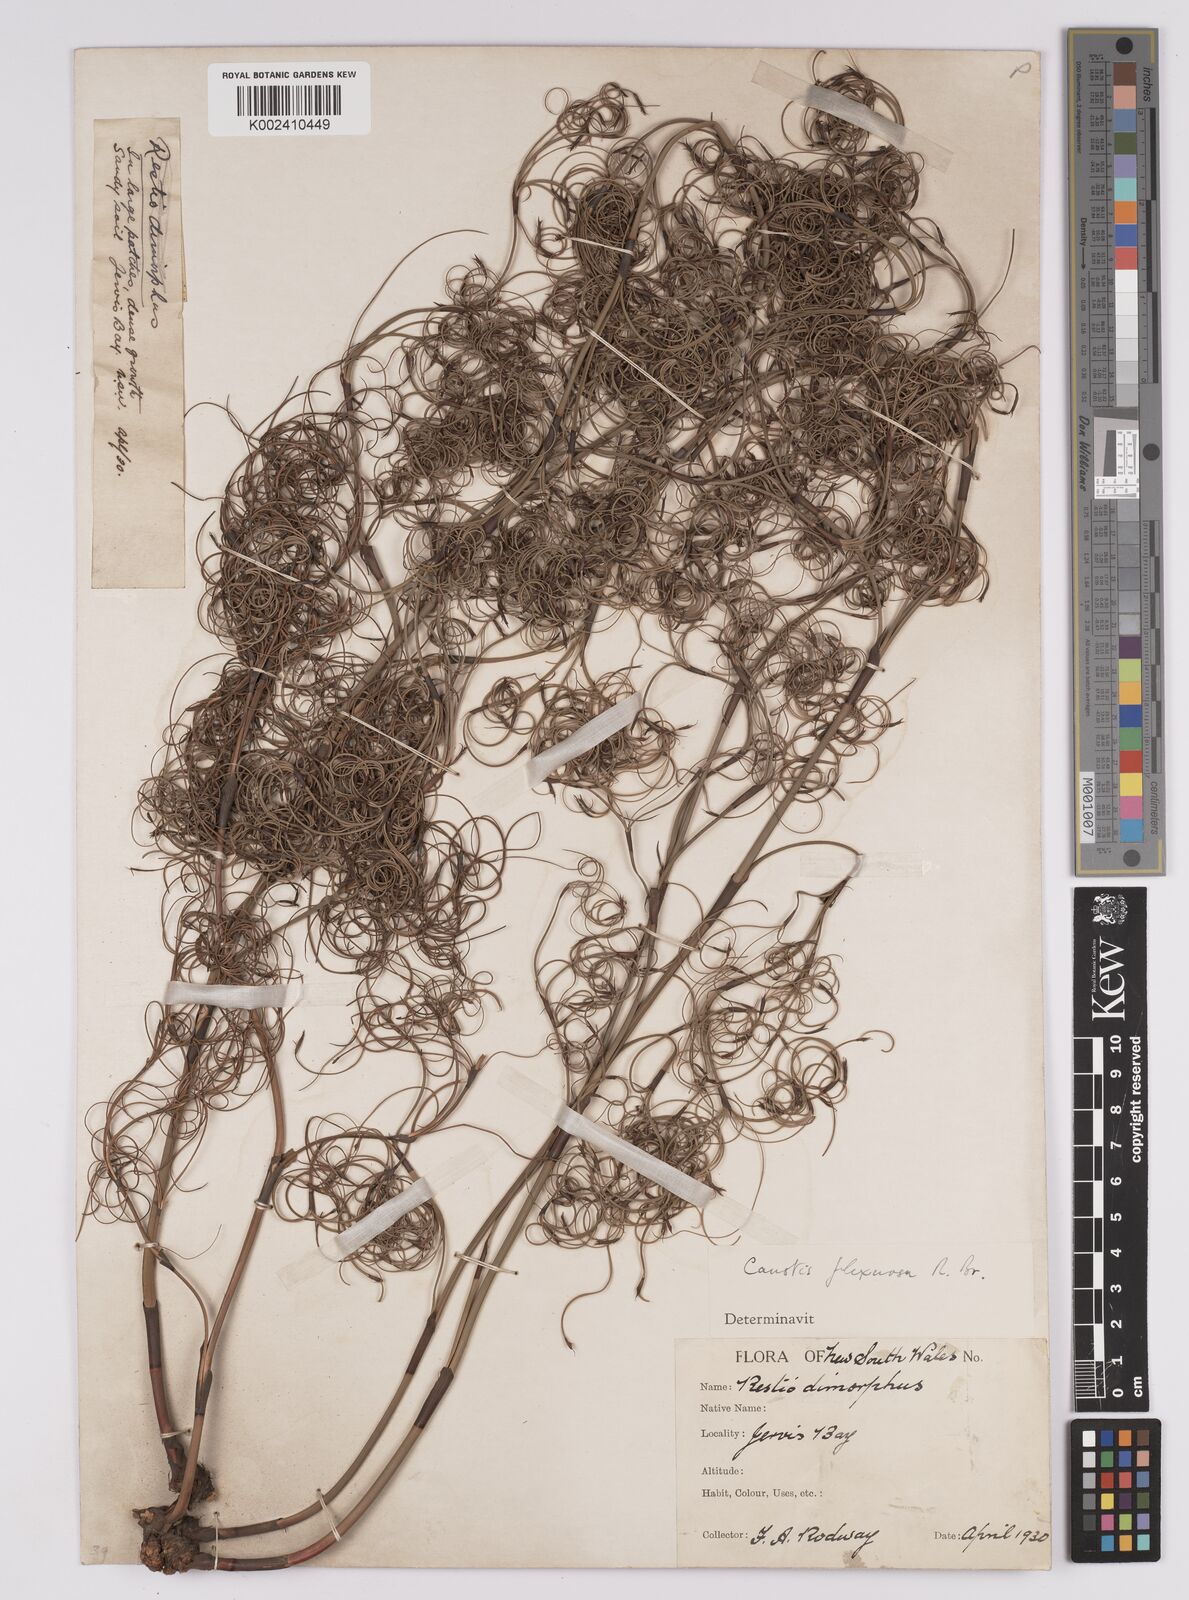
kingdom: Plantae
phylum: Tracheophyta
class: Liliopsida
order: Poales
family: Cyperaceae
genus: Caustis
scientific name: Caustis flexuosa
